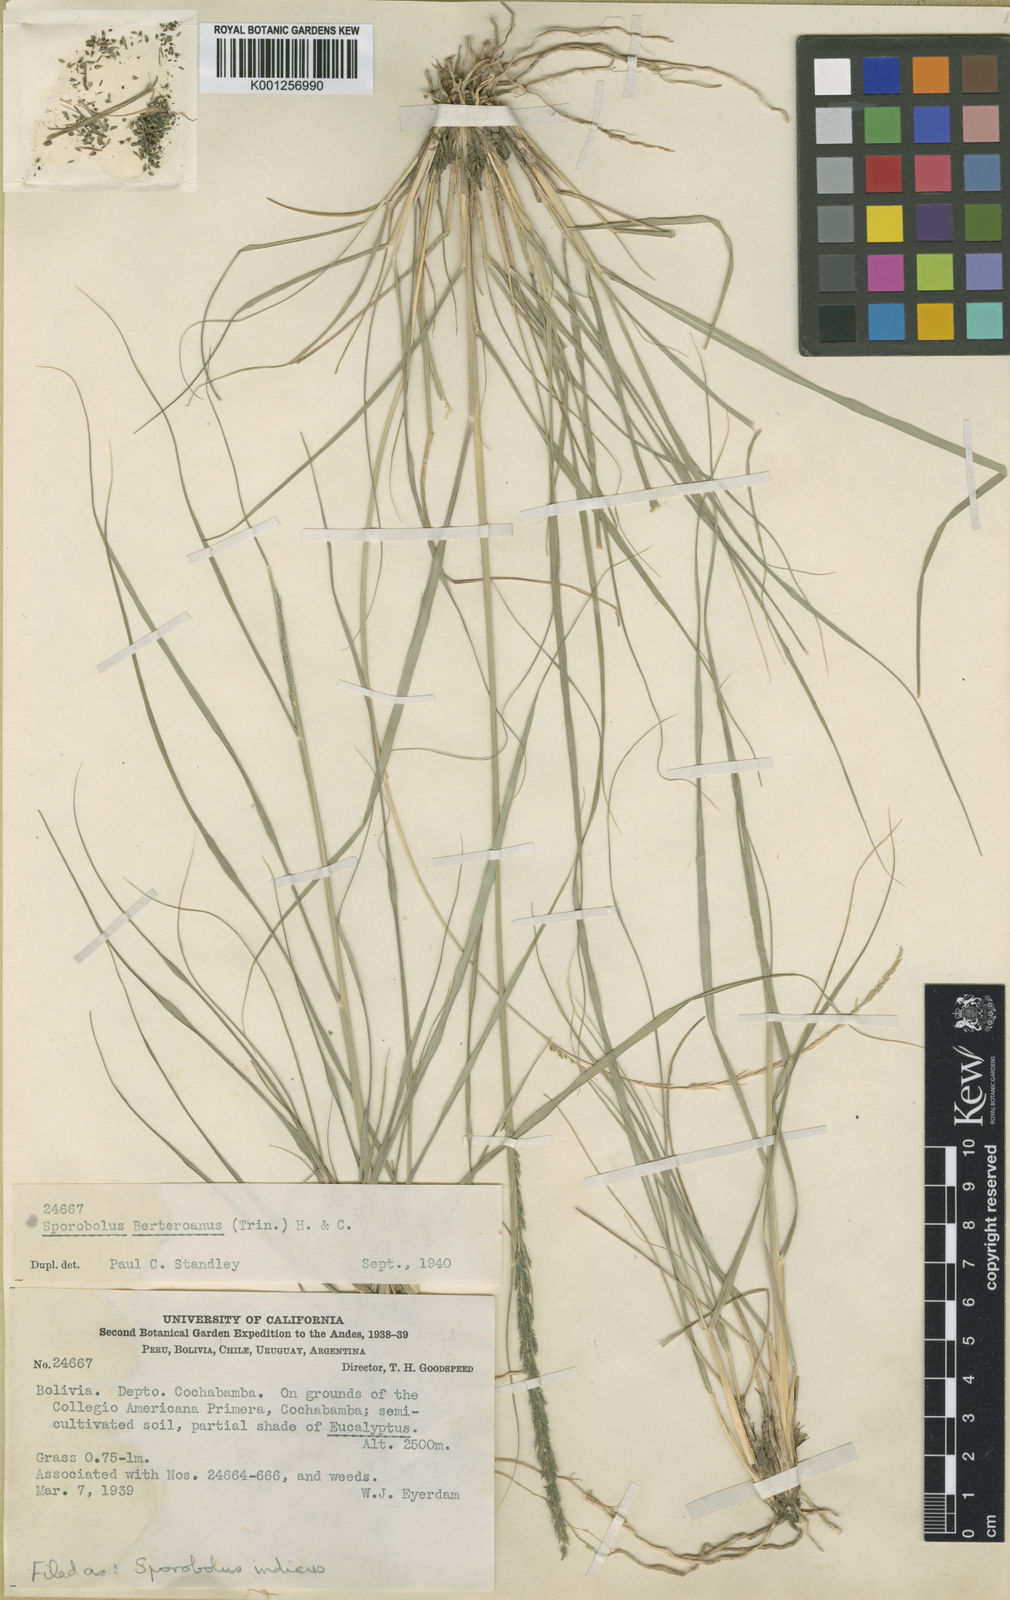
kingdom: Plantae
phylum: Tracheophyta
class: Liliopsida
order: Poales
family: Poaceae
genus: Sporobolus
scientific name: Sporobolus indicus
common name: Smut grass
